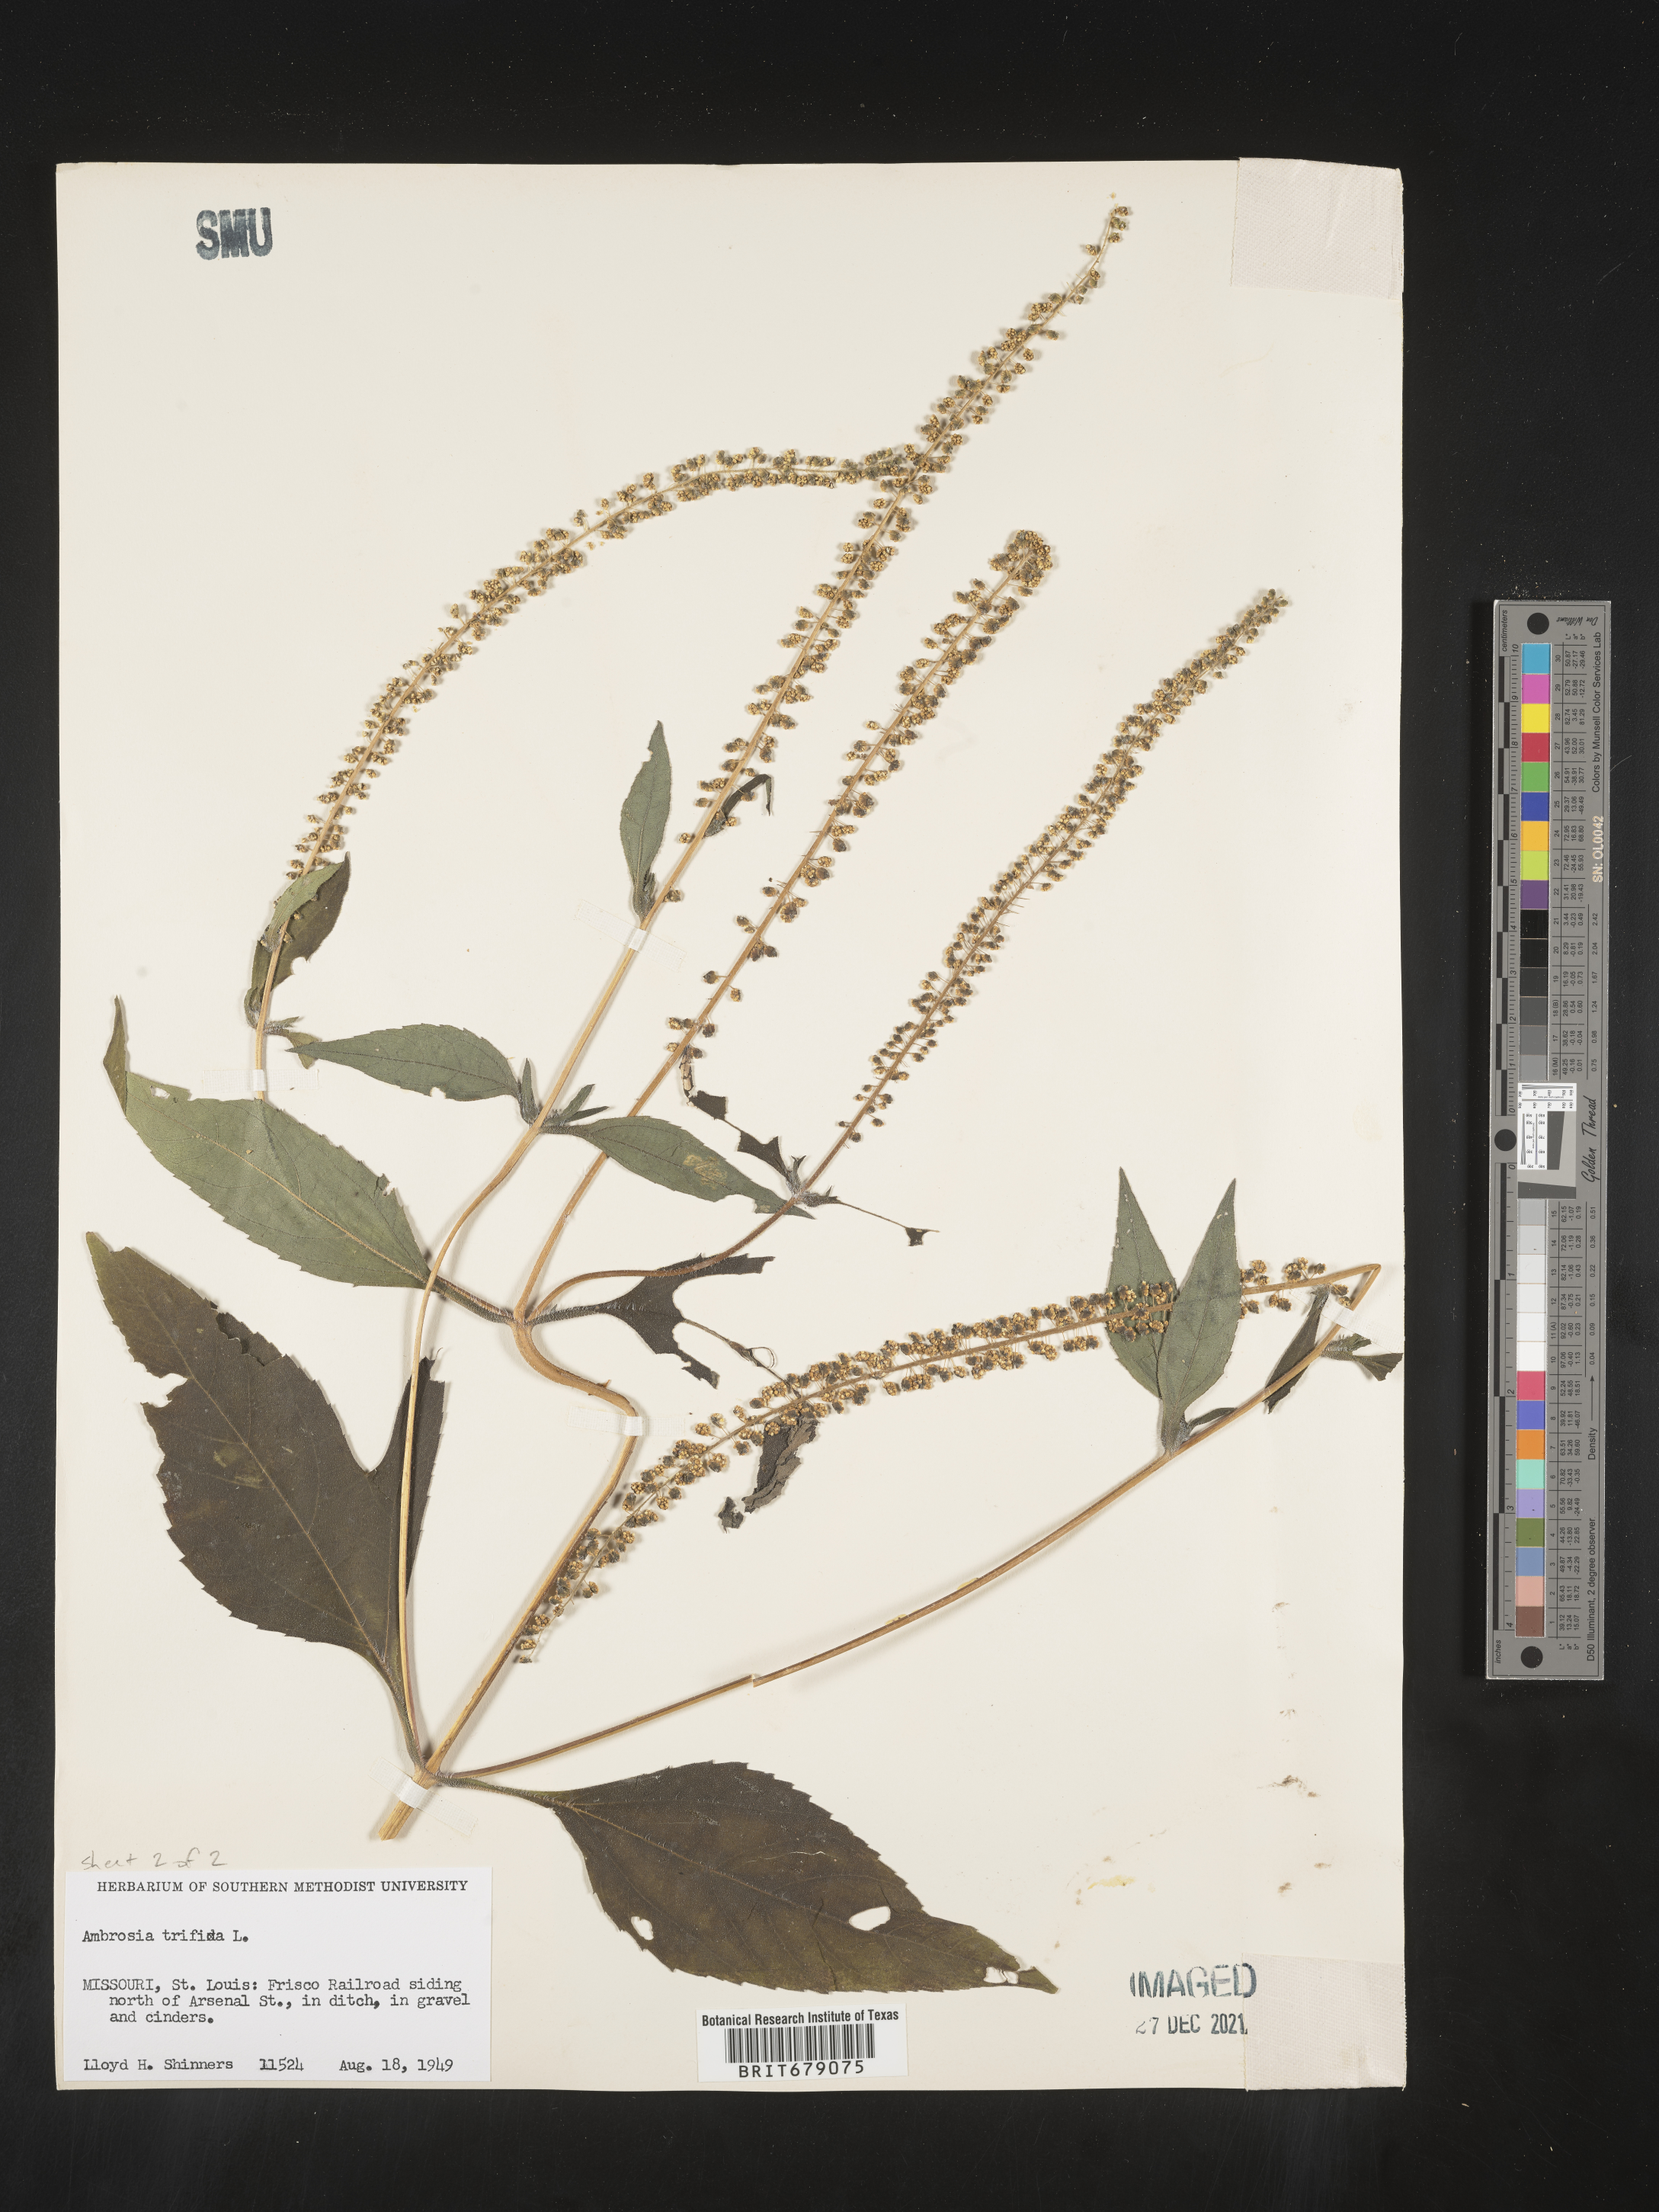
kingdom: Plantae
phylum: Tracheophyta
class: Magnoliopsida
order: Asterales
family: Asteraceae
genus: Ambrosia
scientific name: Ambrosia trifida
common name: Giant ragweed
